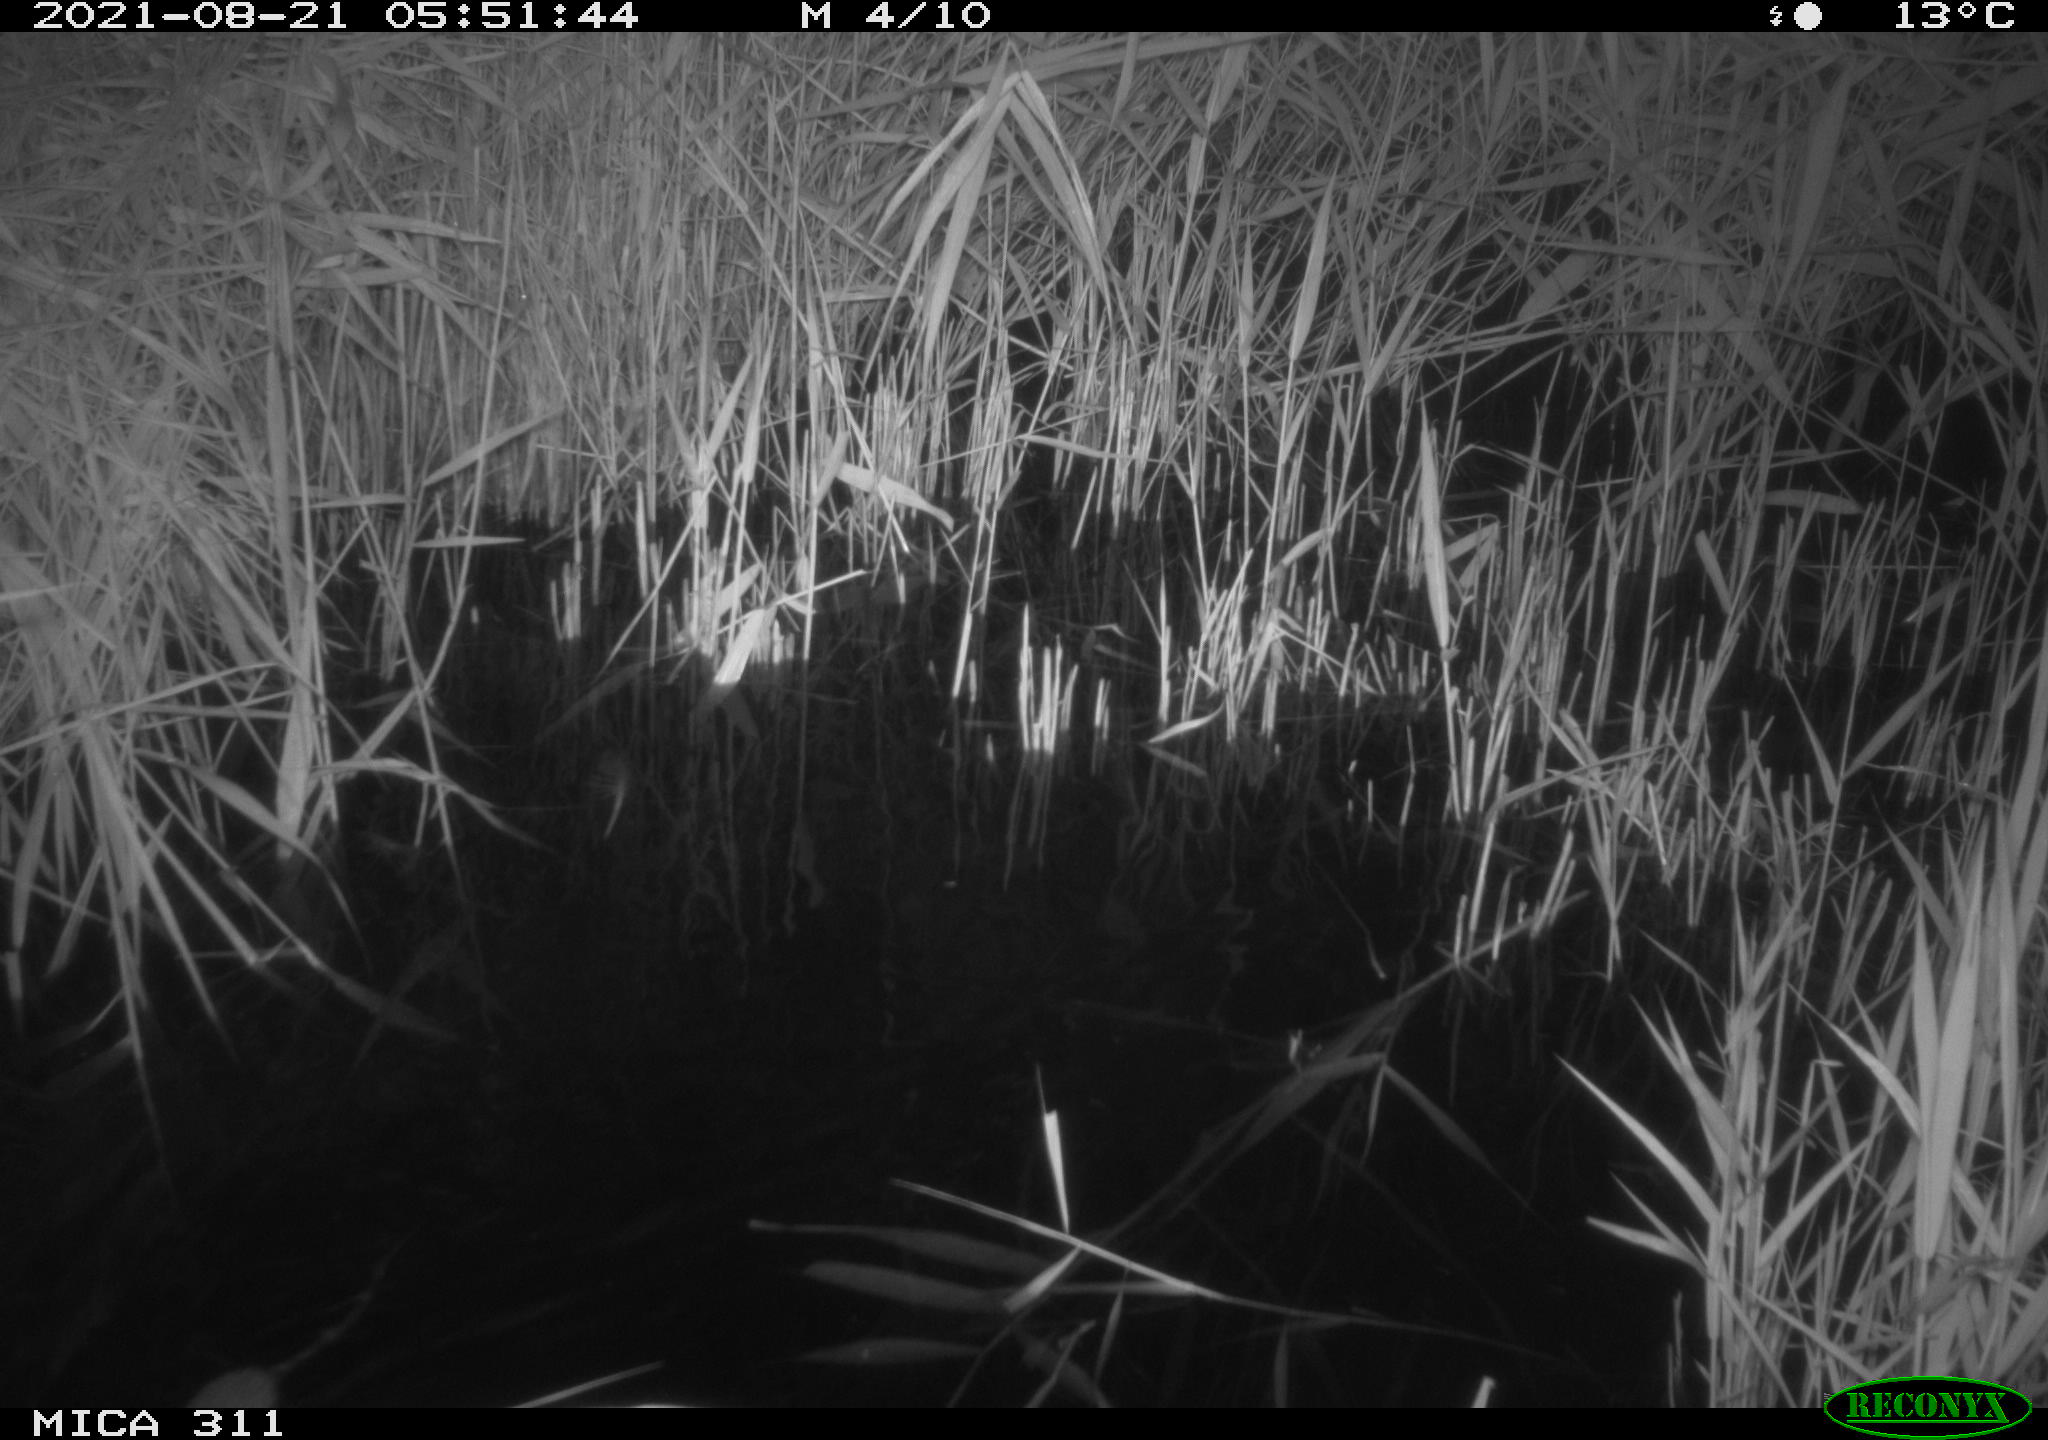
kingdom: Animalia
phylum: Chordata
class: Mammalia
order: Rodentia
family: Muridae
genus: Rattus
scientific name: Rattus norvegicus
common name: Brown rat
